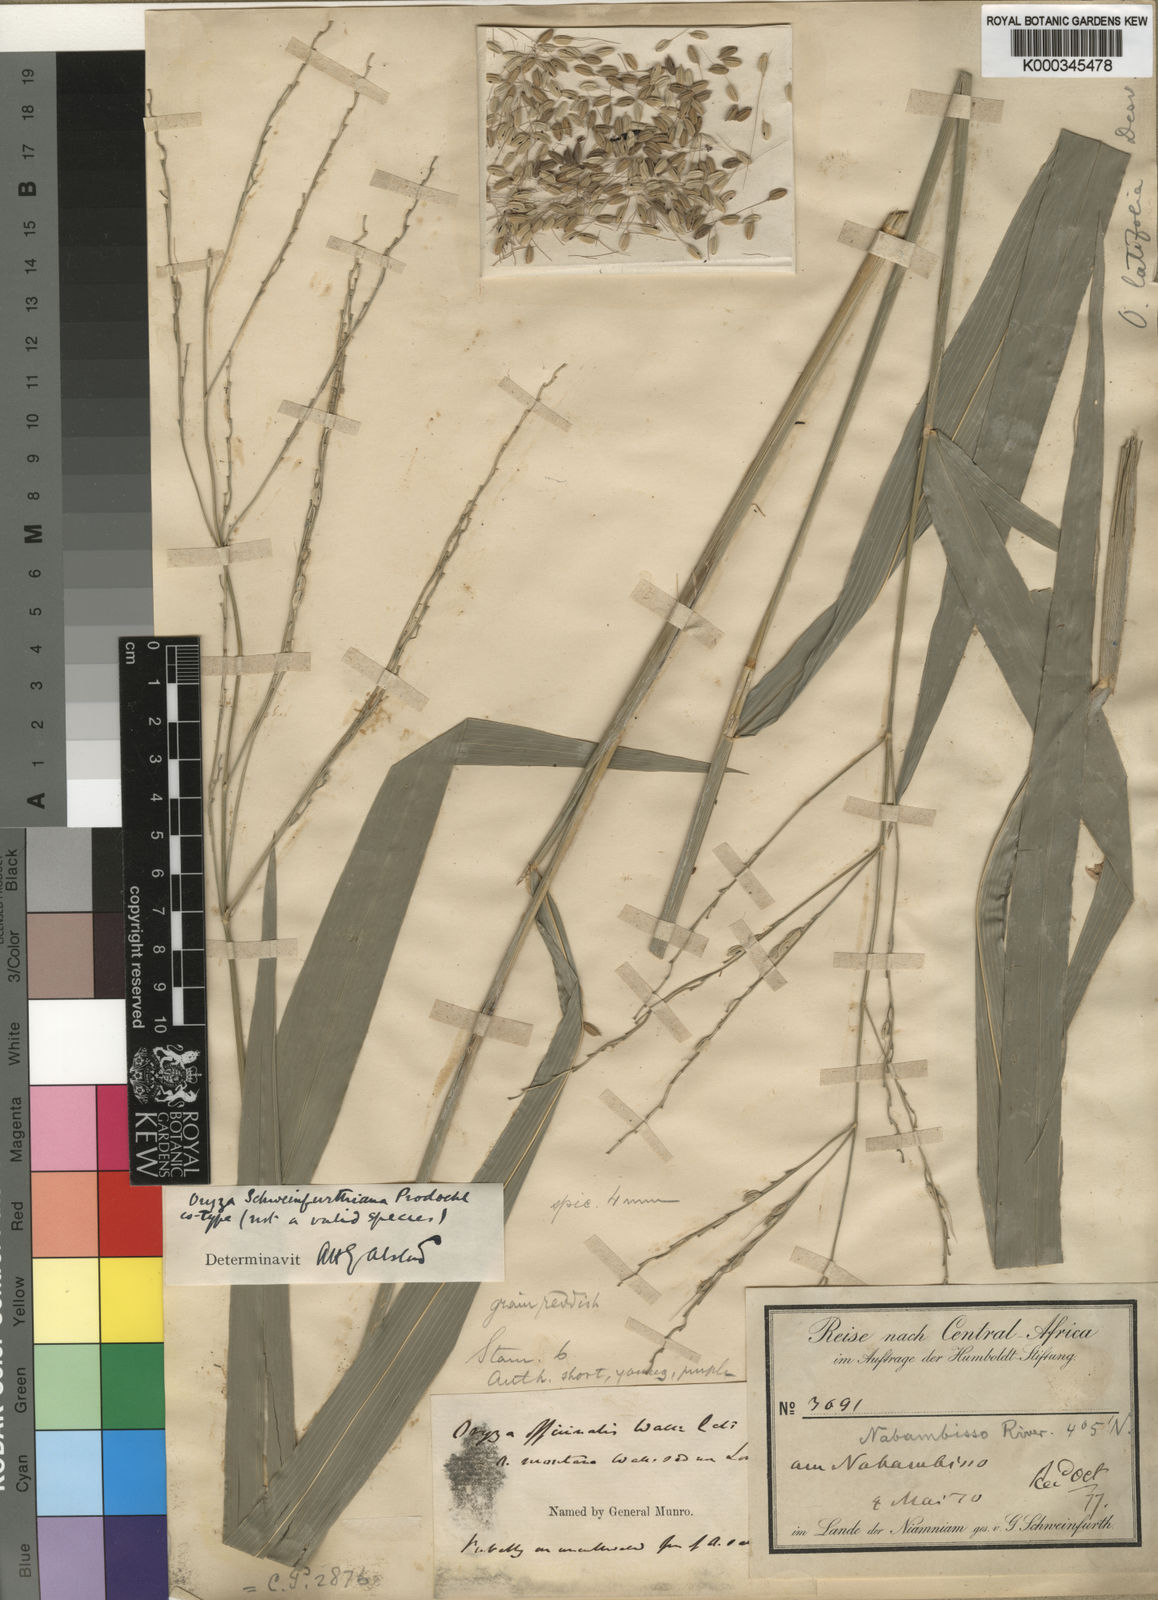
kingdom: Plantae
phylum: Tracheophyta
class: Liliopsida
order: Poales
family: Poaceae
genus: Oryza
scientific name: Oryza punctata
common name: Red rice
